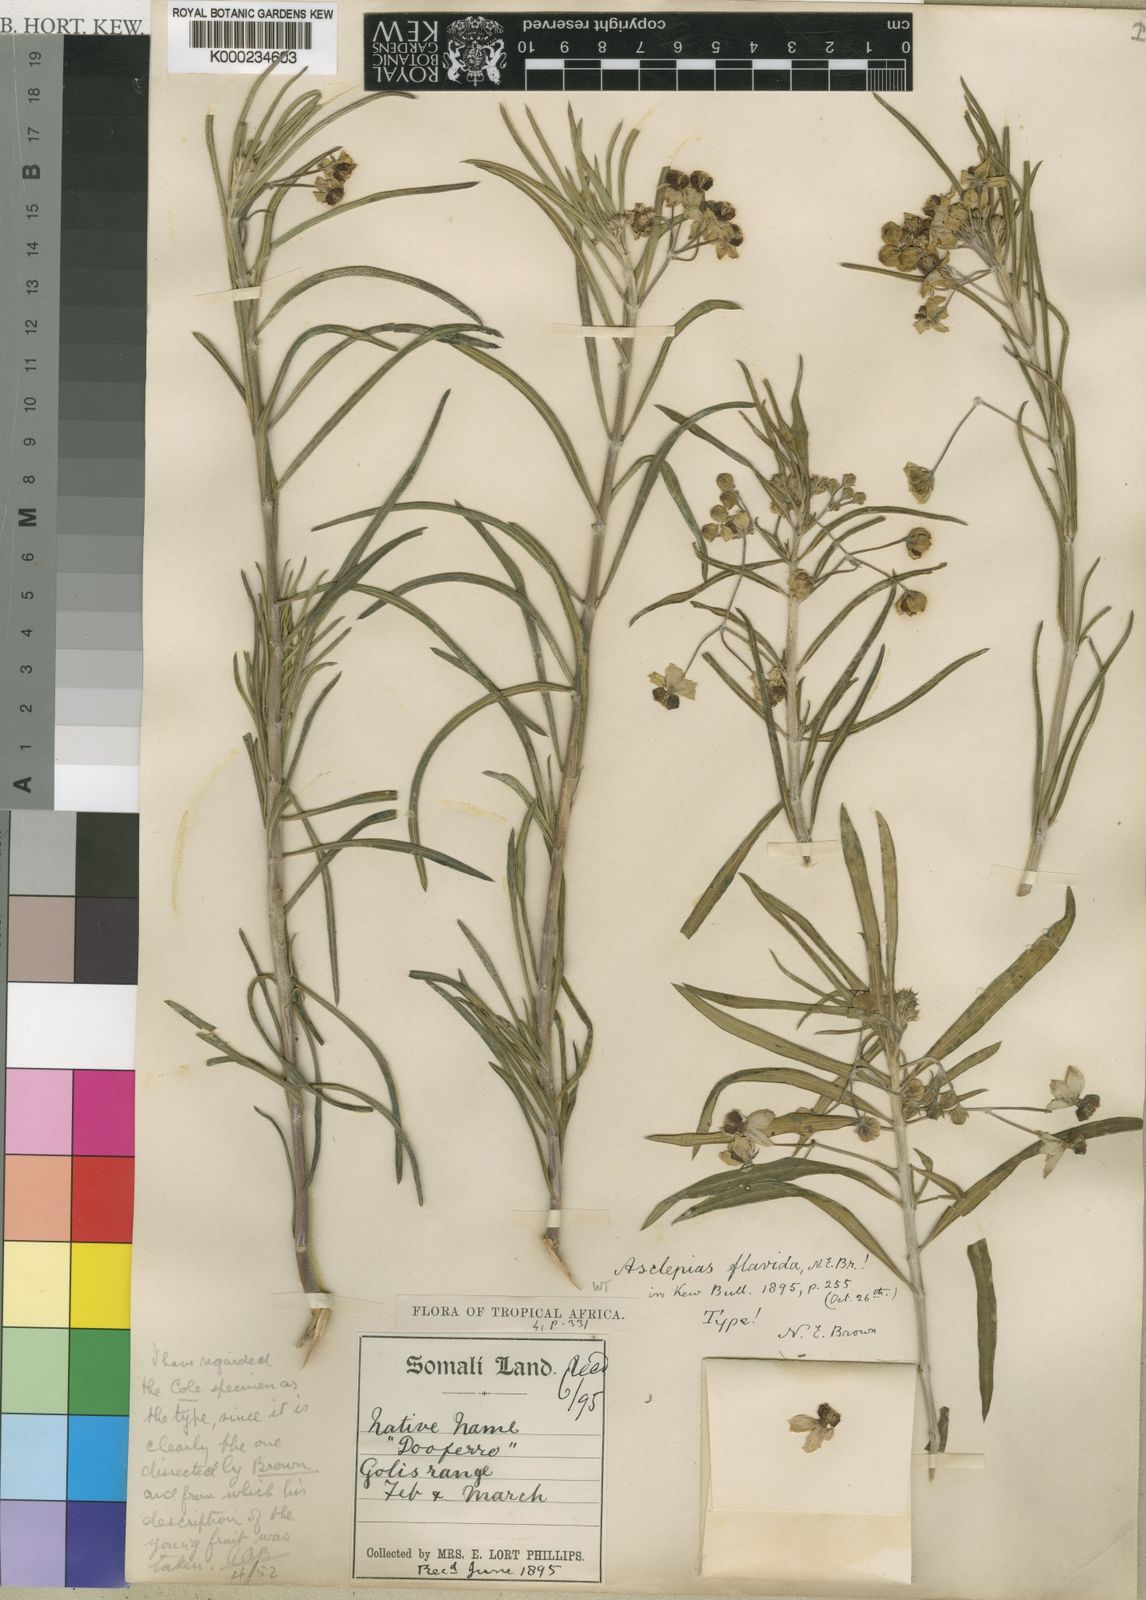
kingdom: Plantae
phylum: Tracheophyta
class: Magnoliopsida
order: Gentianales
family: Apocynaceae
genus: Gomphocarpus
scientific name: Gomphocarpus fruticosus
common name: Milkweed
